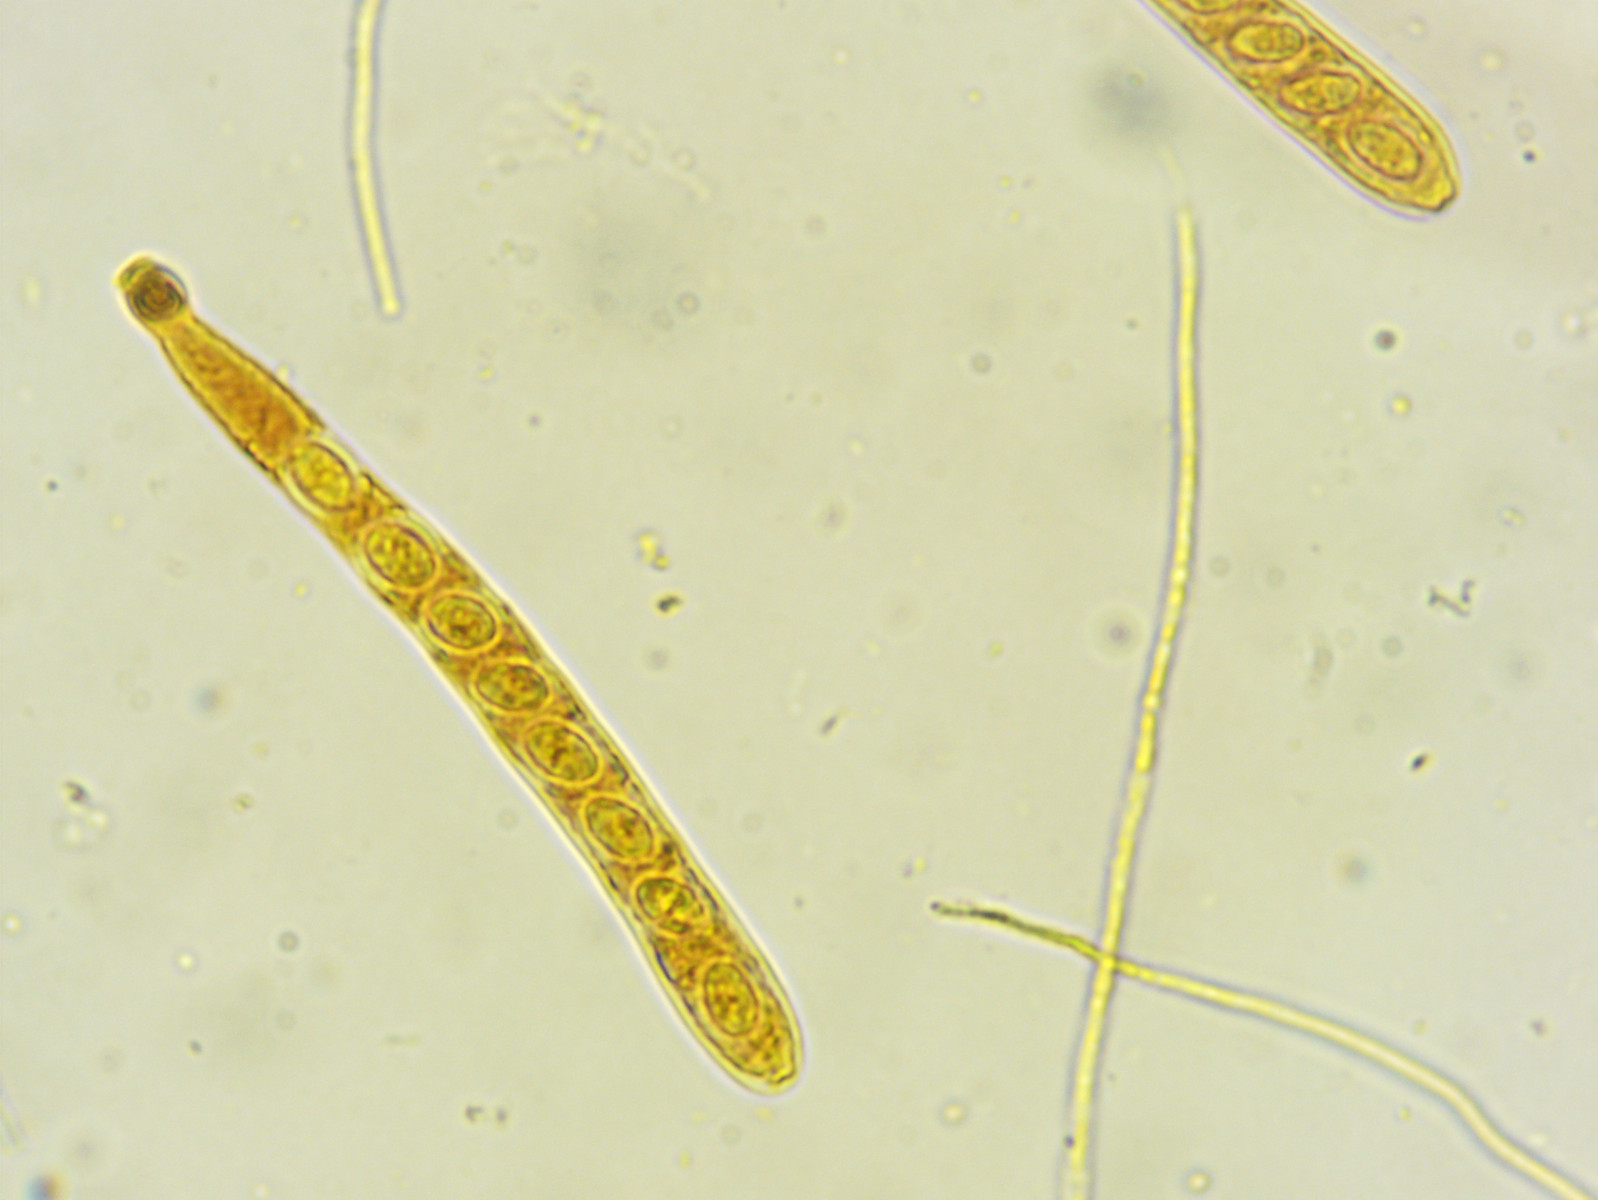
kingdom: Fungi
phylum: Ascomycota
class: Leotiomycetes
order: Helotiales
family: Lachnaceae
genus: Perrotia
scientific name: Perrotia gallica
